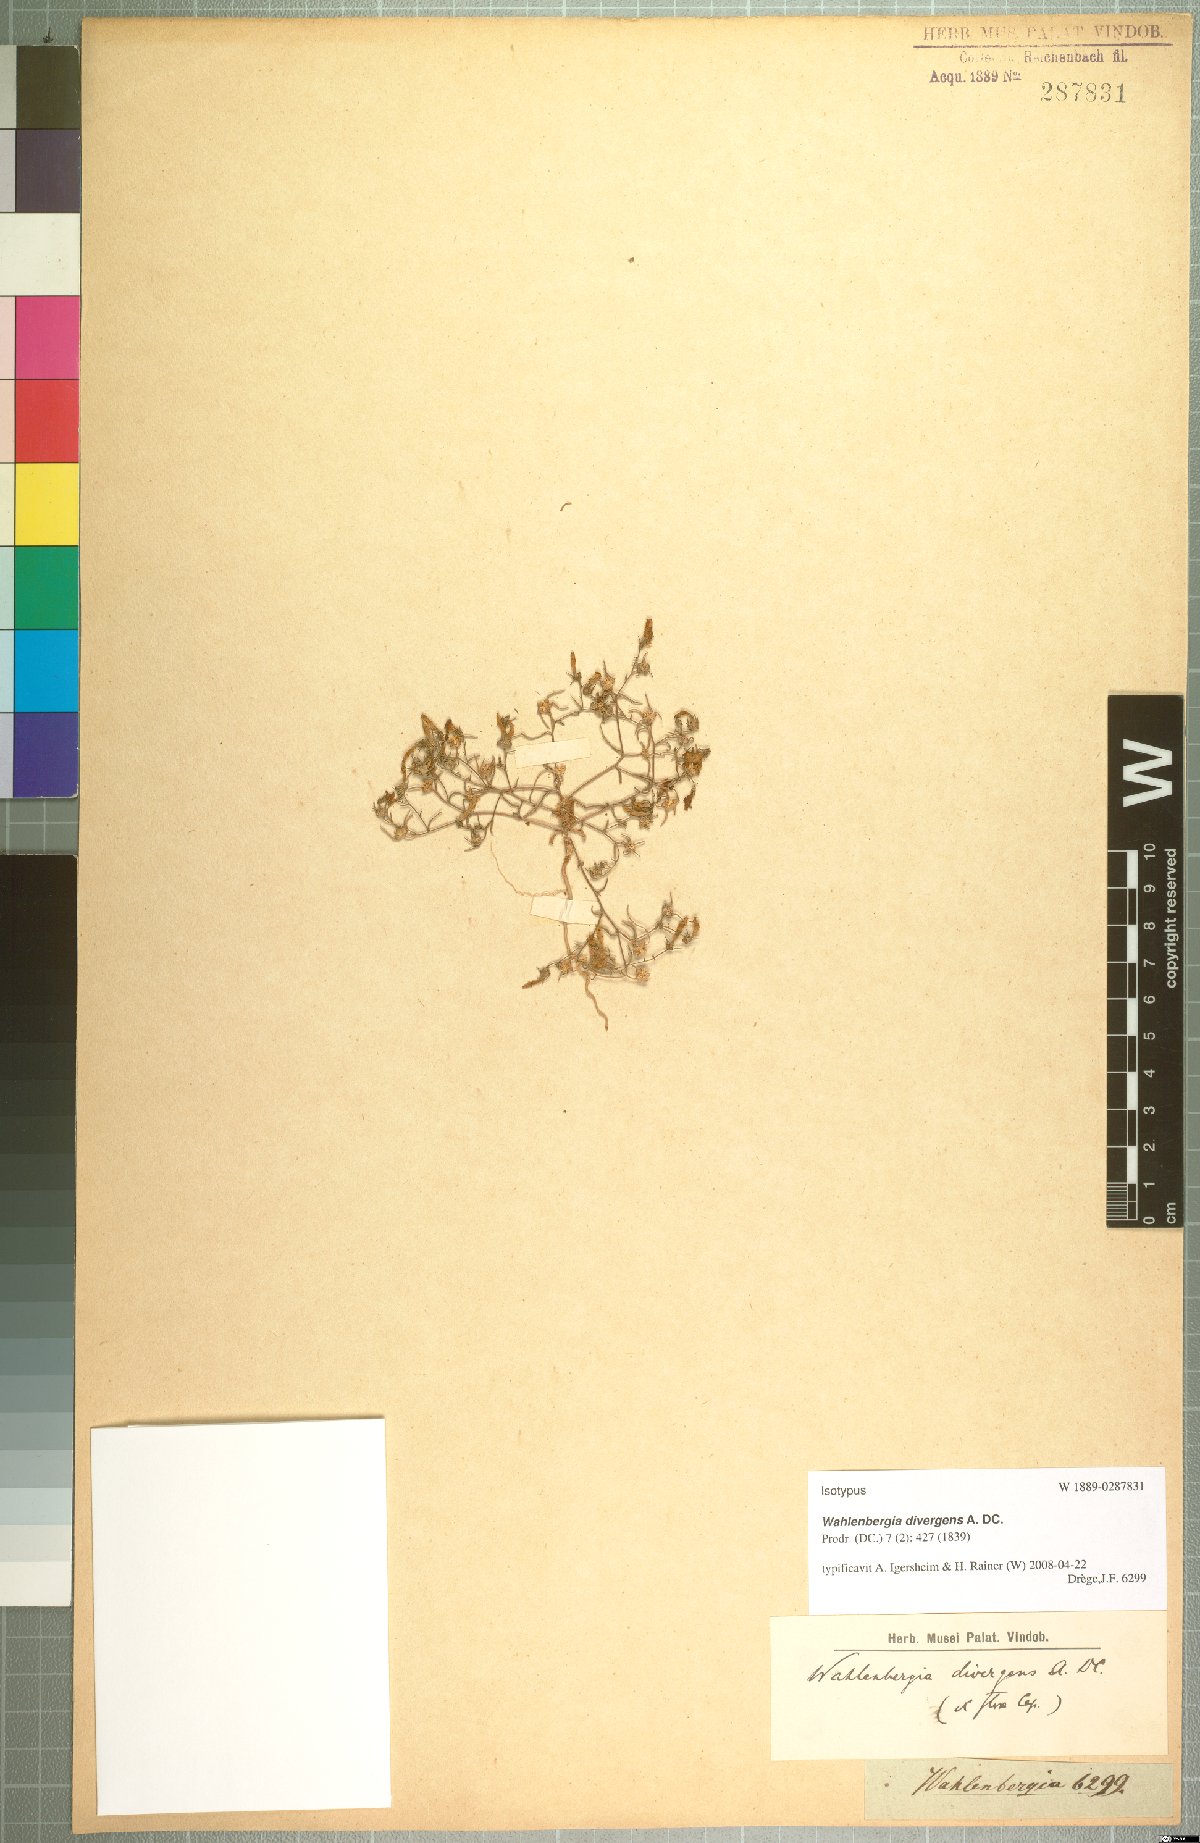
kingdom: Plantae
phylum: Tracheophyta
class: Magnoliopsida
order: Asterales
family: Campanulaceae
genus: Wahlenbergia
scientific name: Wahlenbergia divergens
